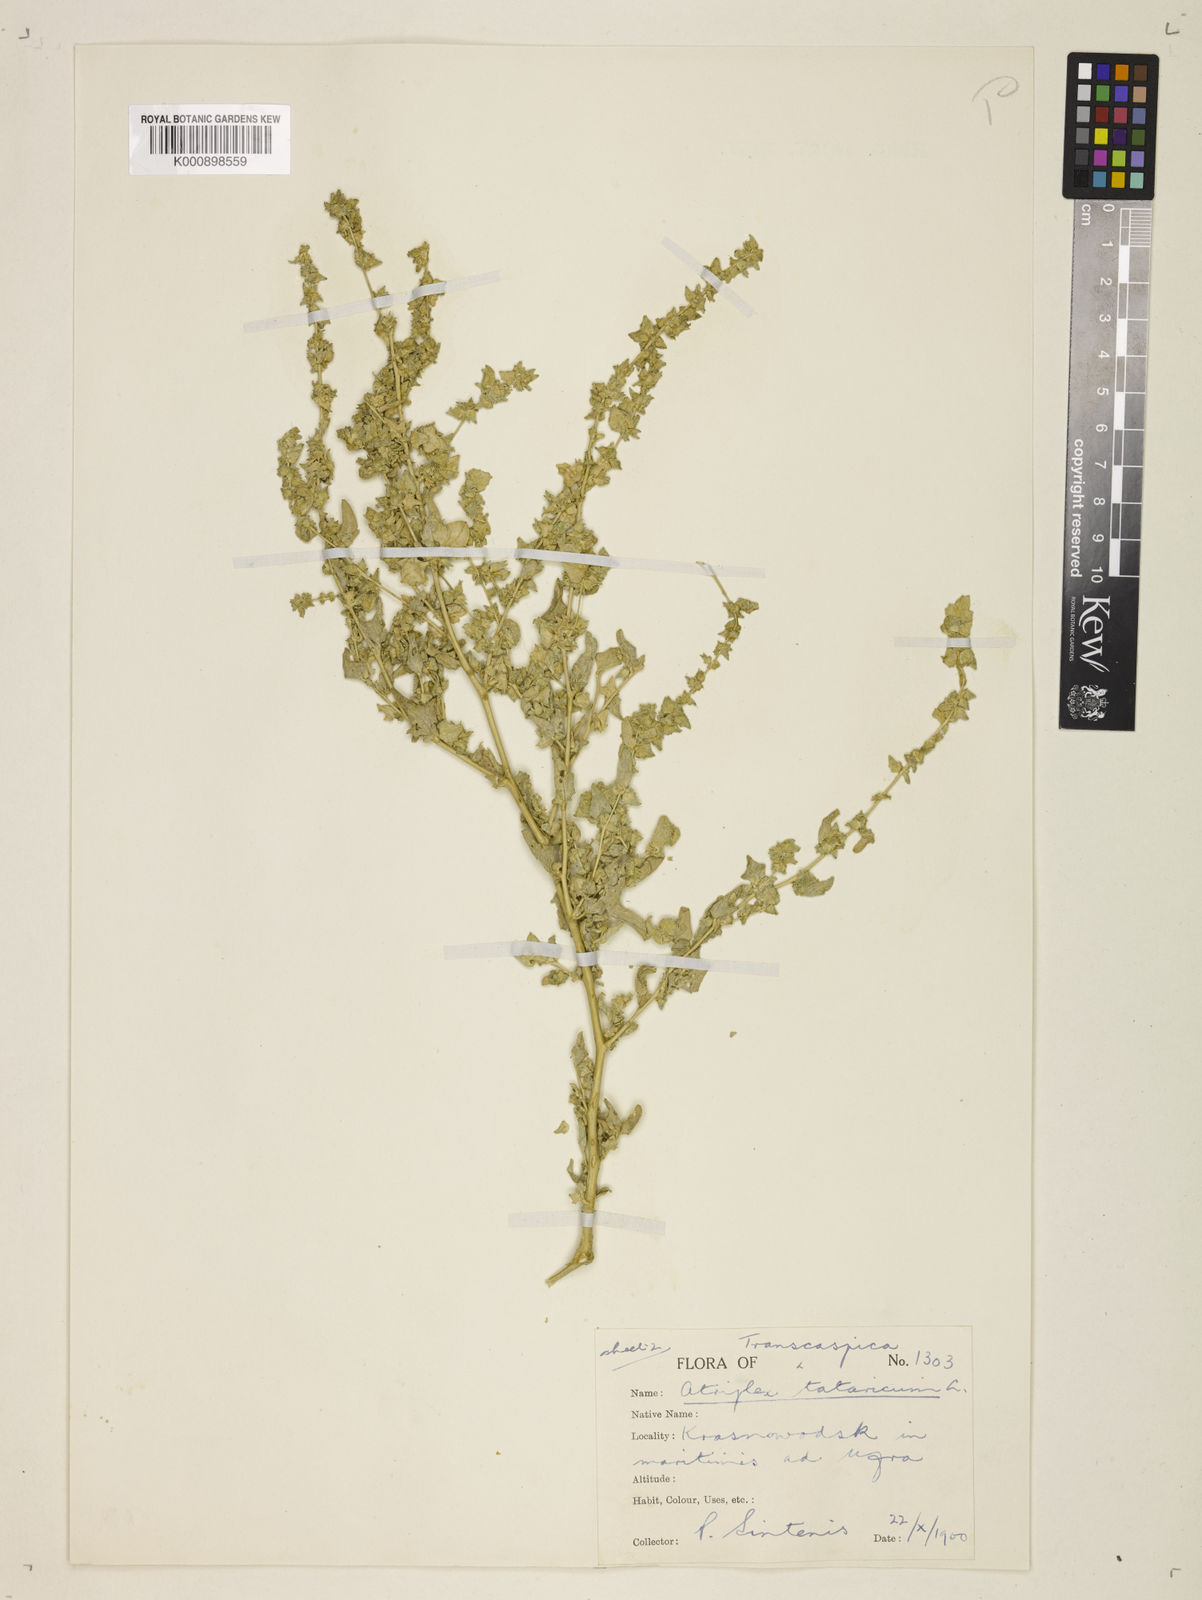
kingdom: Plantae
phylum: Tracheophyta
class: Magnoliopsida
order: Caryophyllales
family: Amaranthaceae
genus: Atriplex
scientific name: Atriplex tatarica
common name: Tatarian orache
